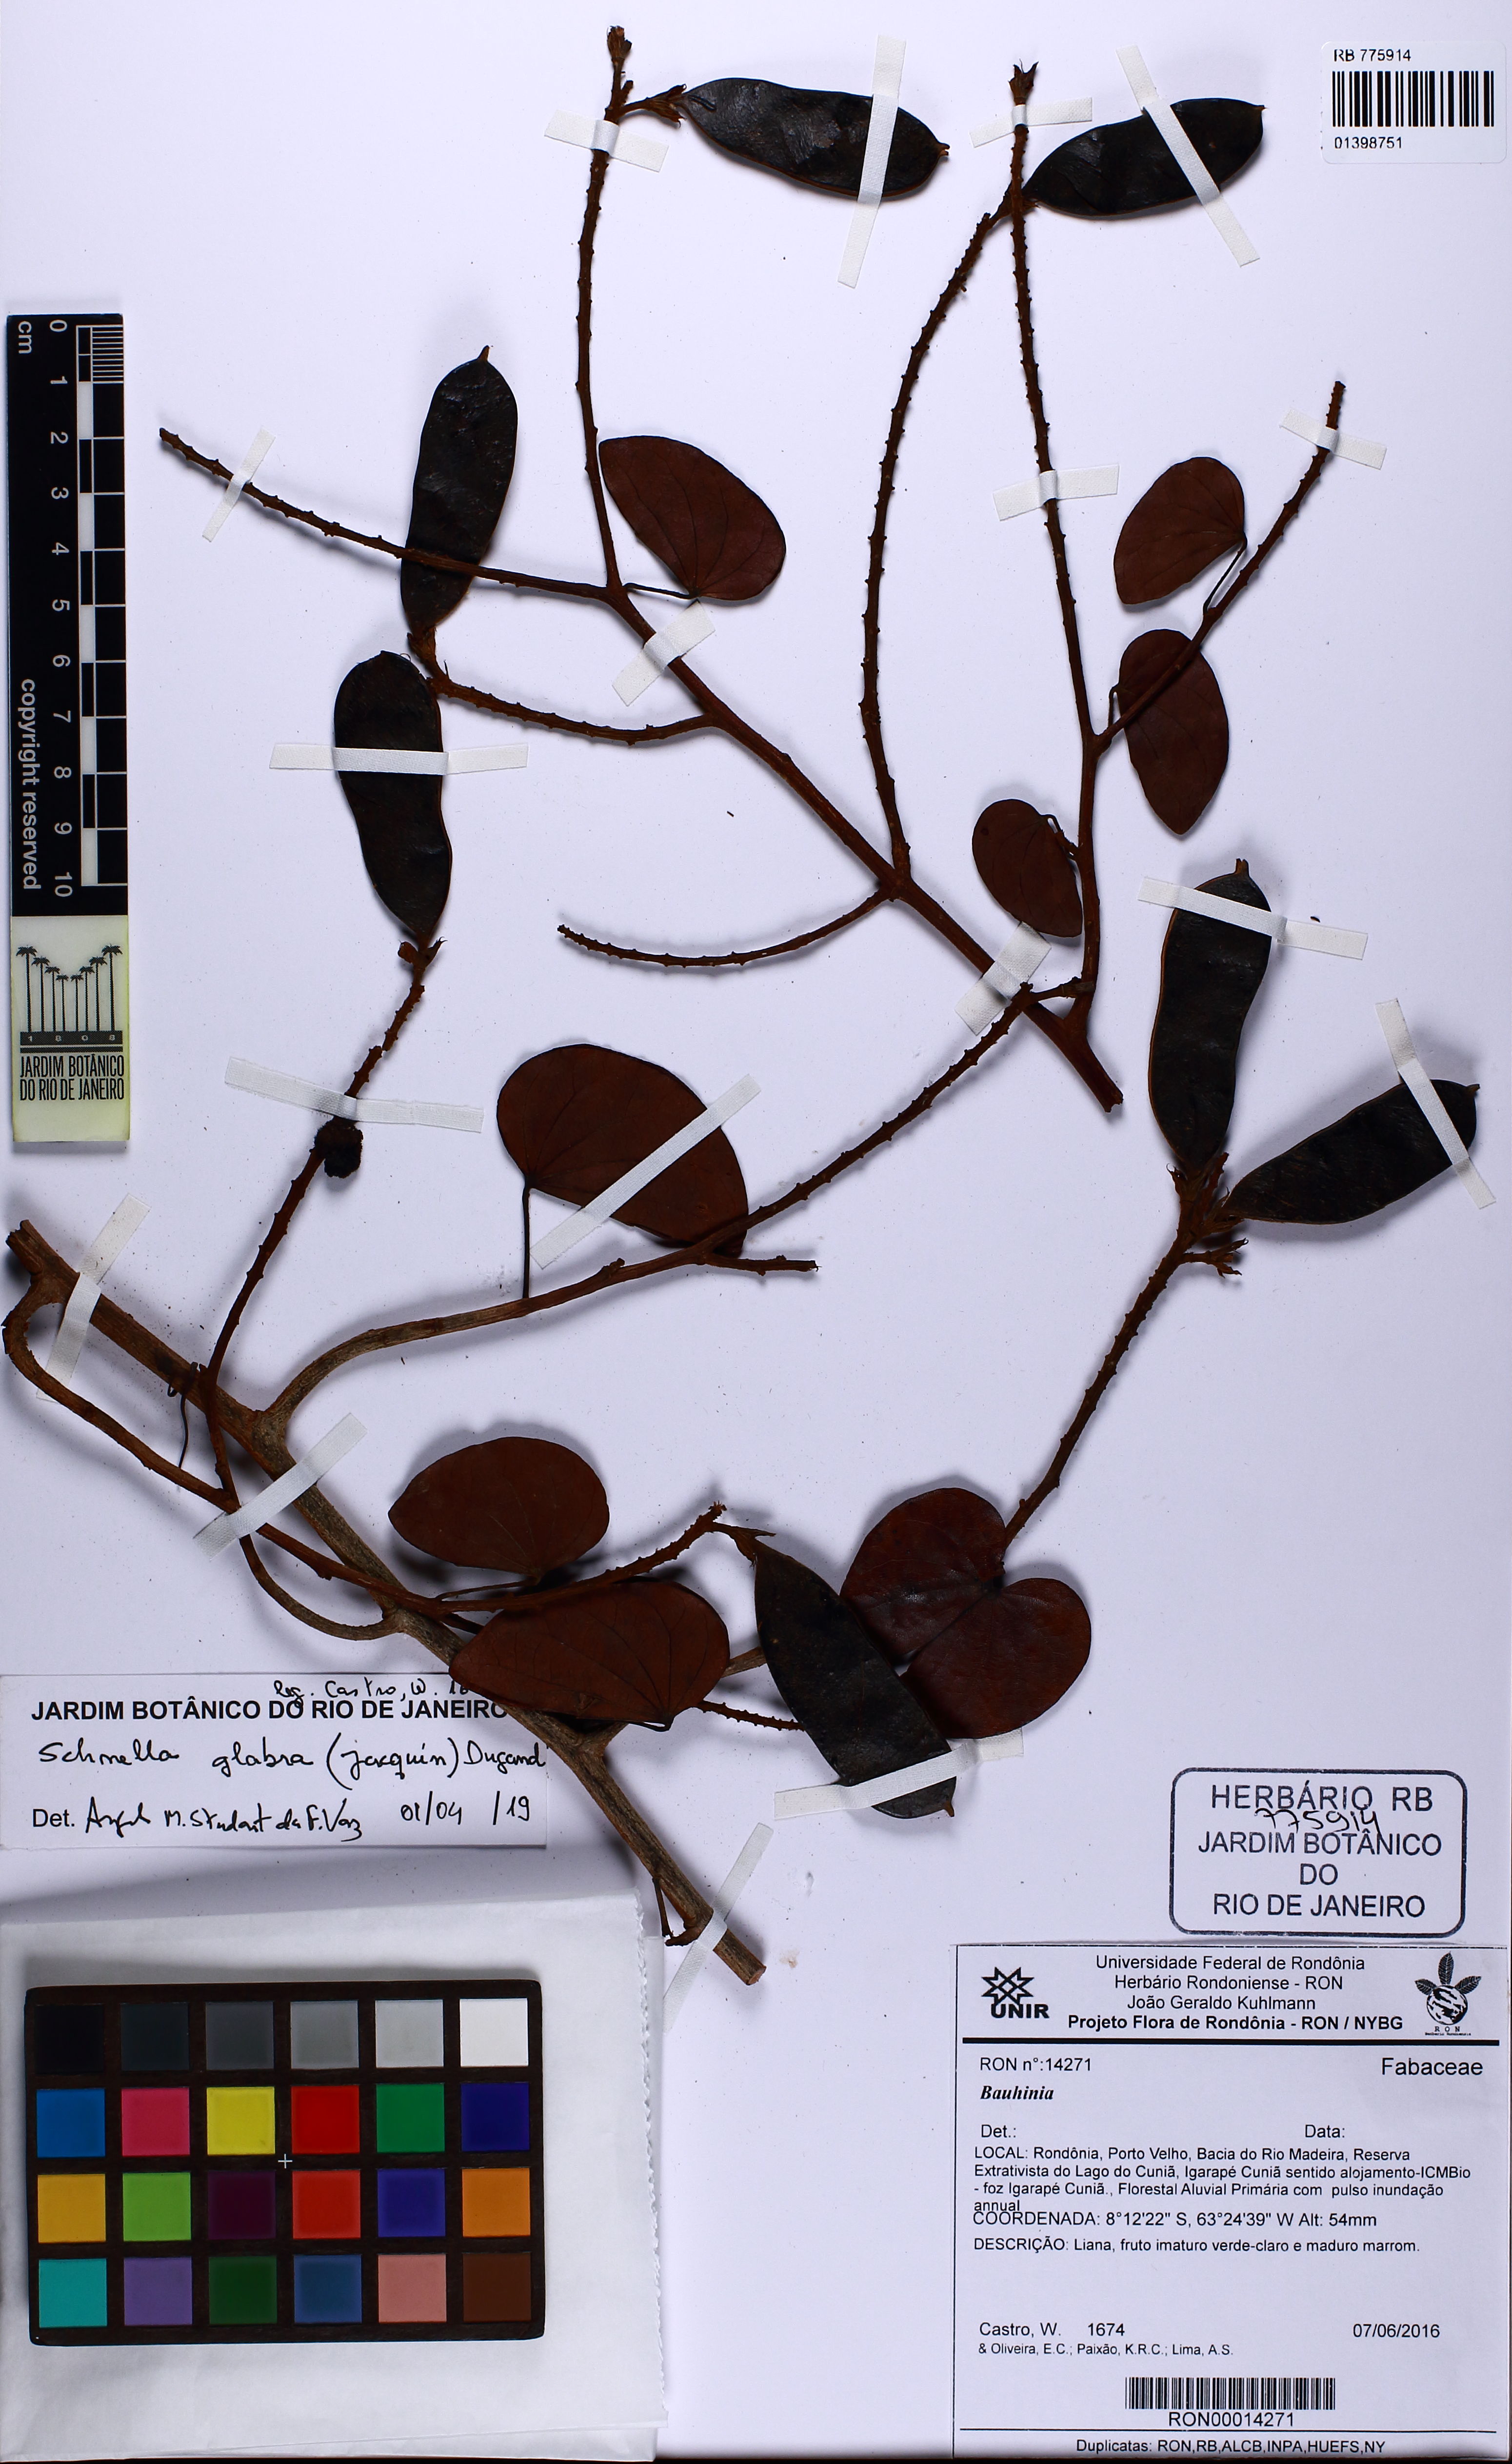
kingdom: Plantae
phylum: Tracheophyta
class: Magnoliopsida
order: Fabales
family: Fabaceae
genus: Schnella
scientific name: Schnella glabra
